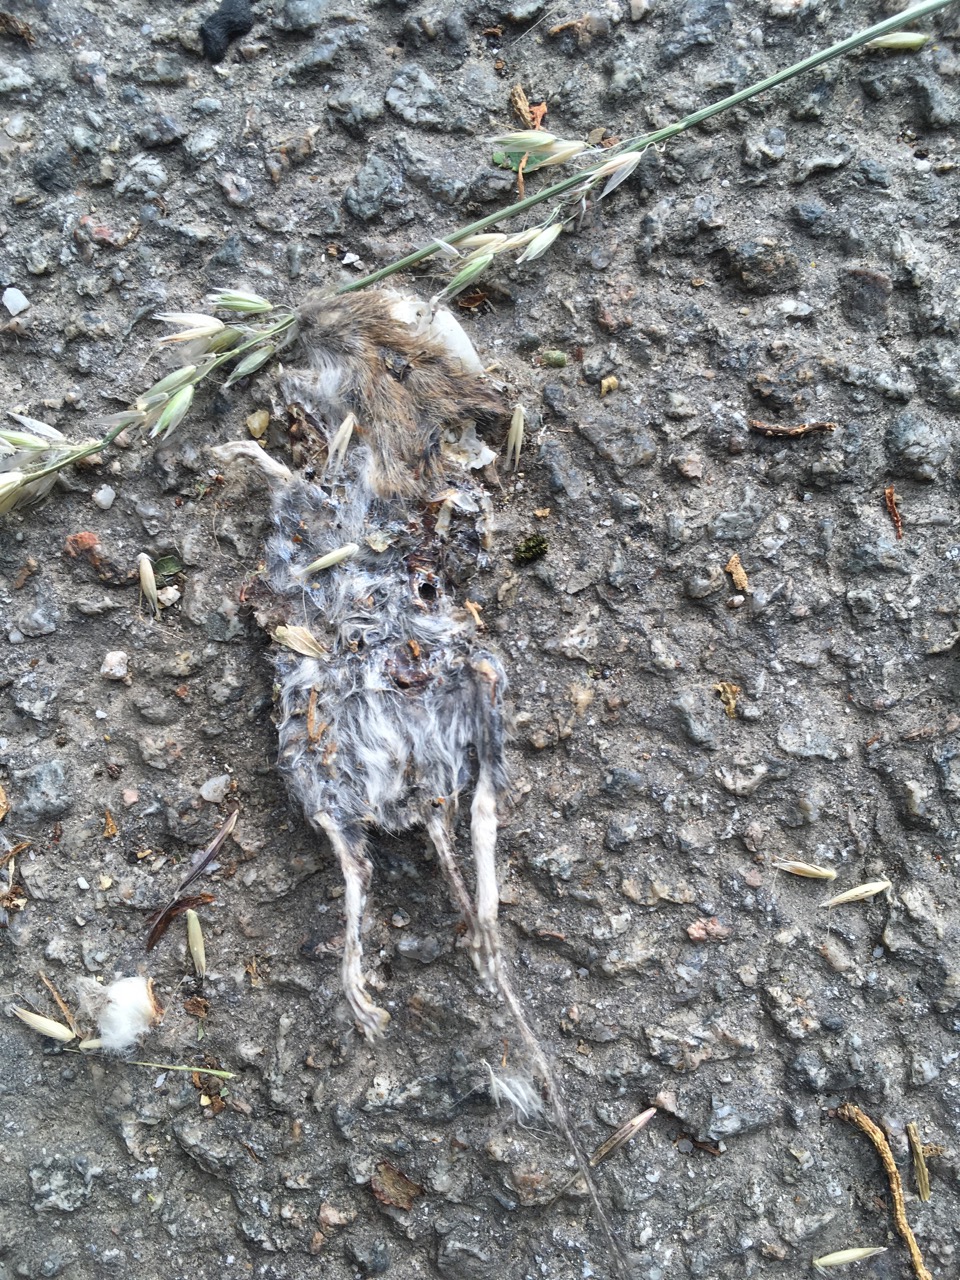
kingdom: Animalia
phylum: Chordata
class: Mammalia
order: Rodentia
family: Muridae
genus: Apodemus
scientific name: Apodemus
